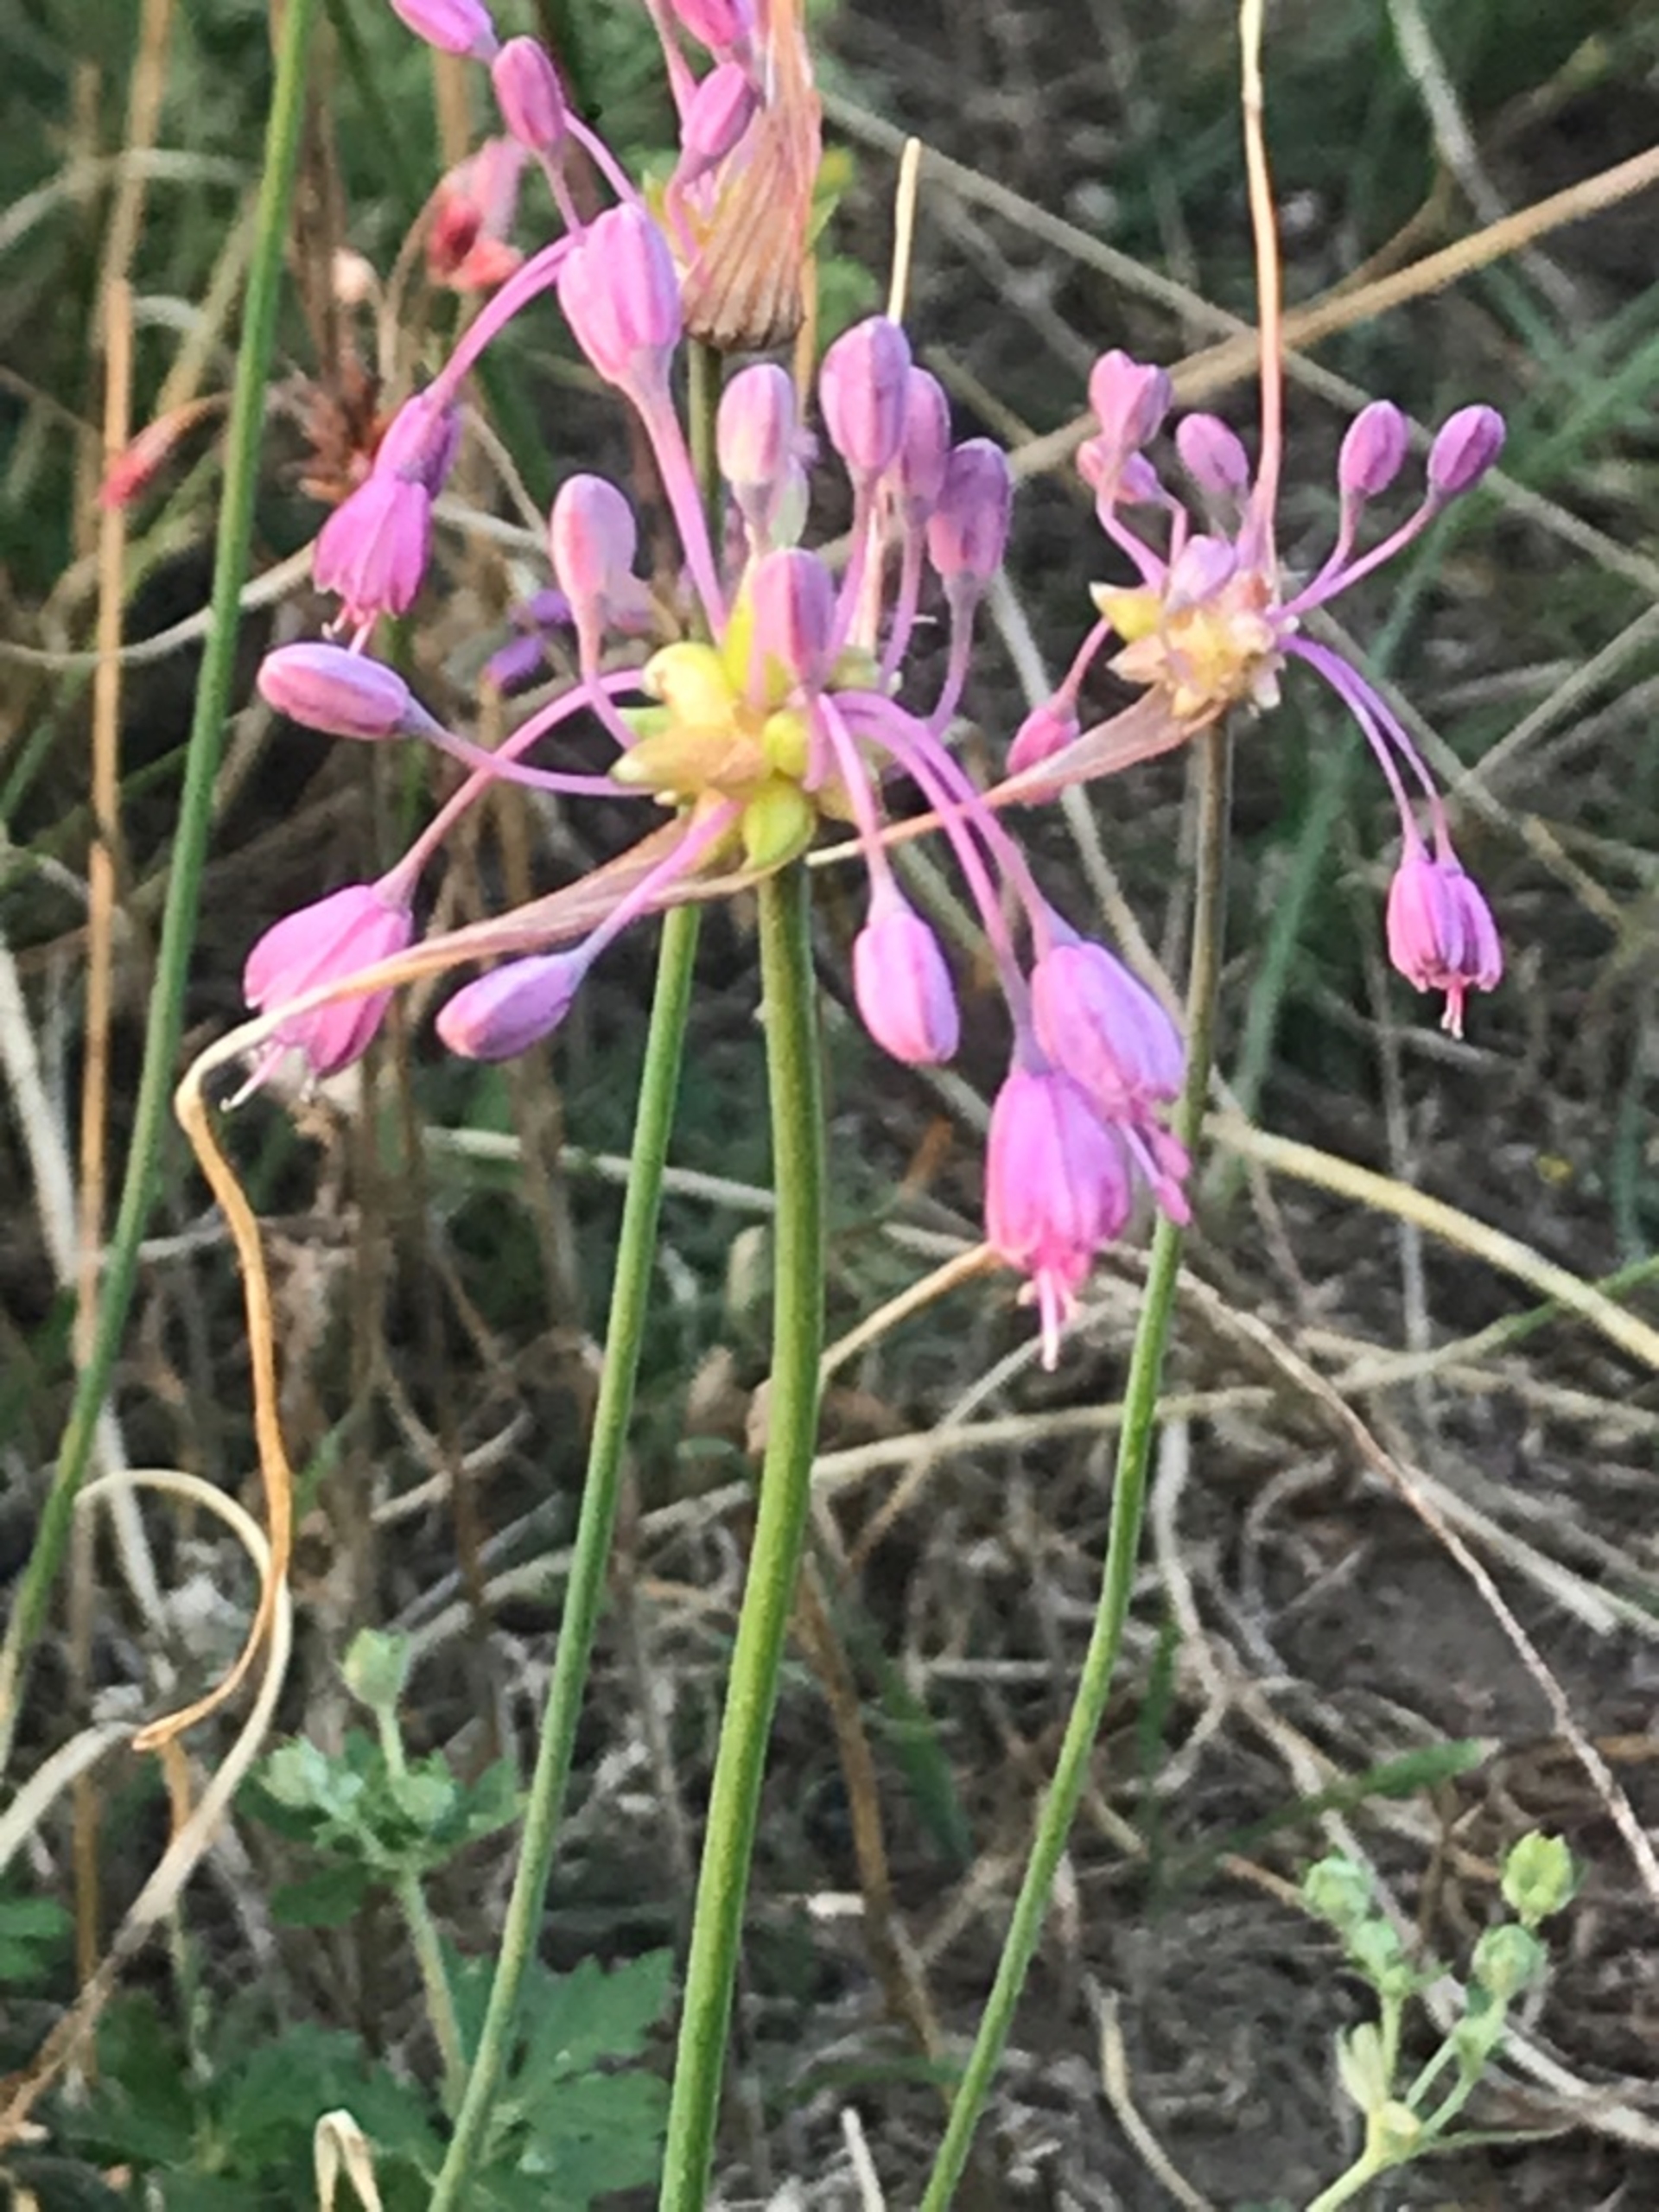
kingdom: Plantae
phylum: Tracheophyta
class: Liliopsida
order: Asparagales
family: Amaryllidaceae
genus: Allium
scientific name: Allium carinatum
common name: Kølet løg
